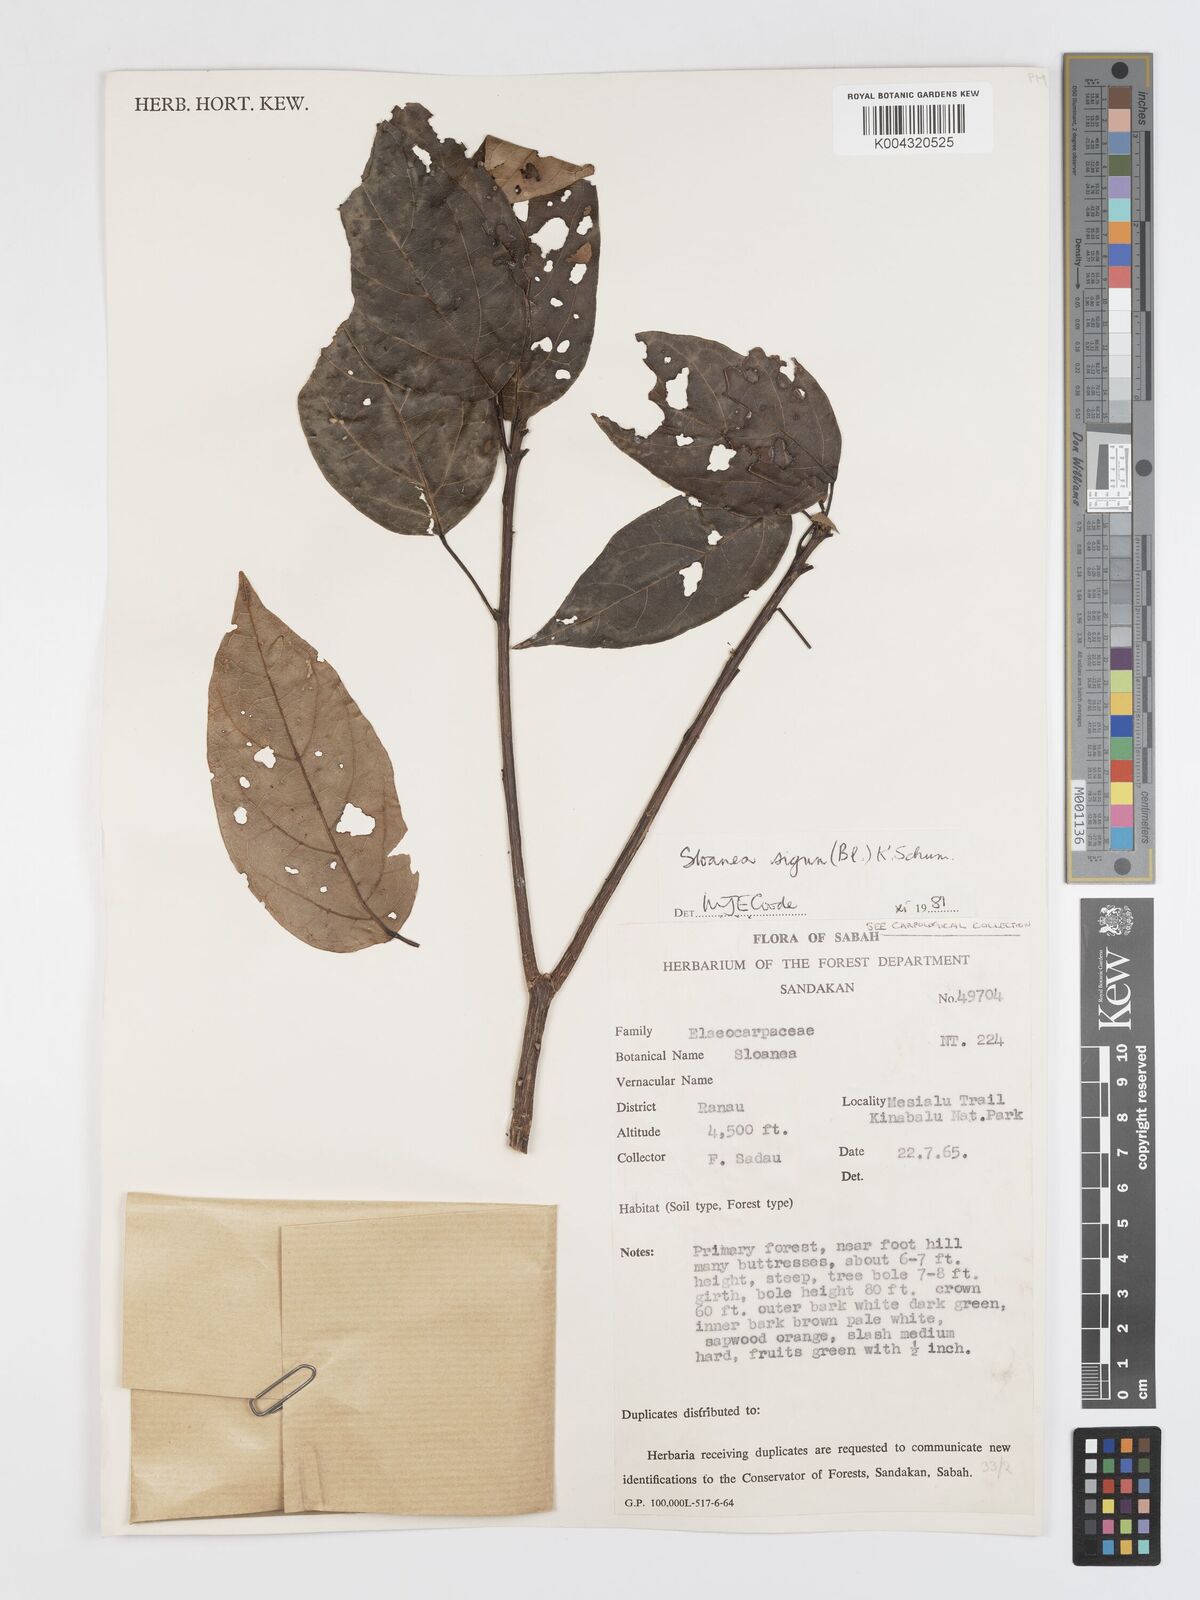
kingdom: Plantae
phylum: Tracheophyta
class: Magnoliopsida
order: Oxalidales
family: Elaeocarpaceae
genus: Sloanea
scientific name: Sloanea sigun
